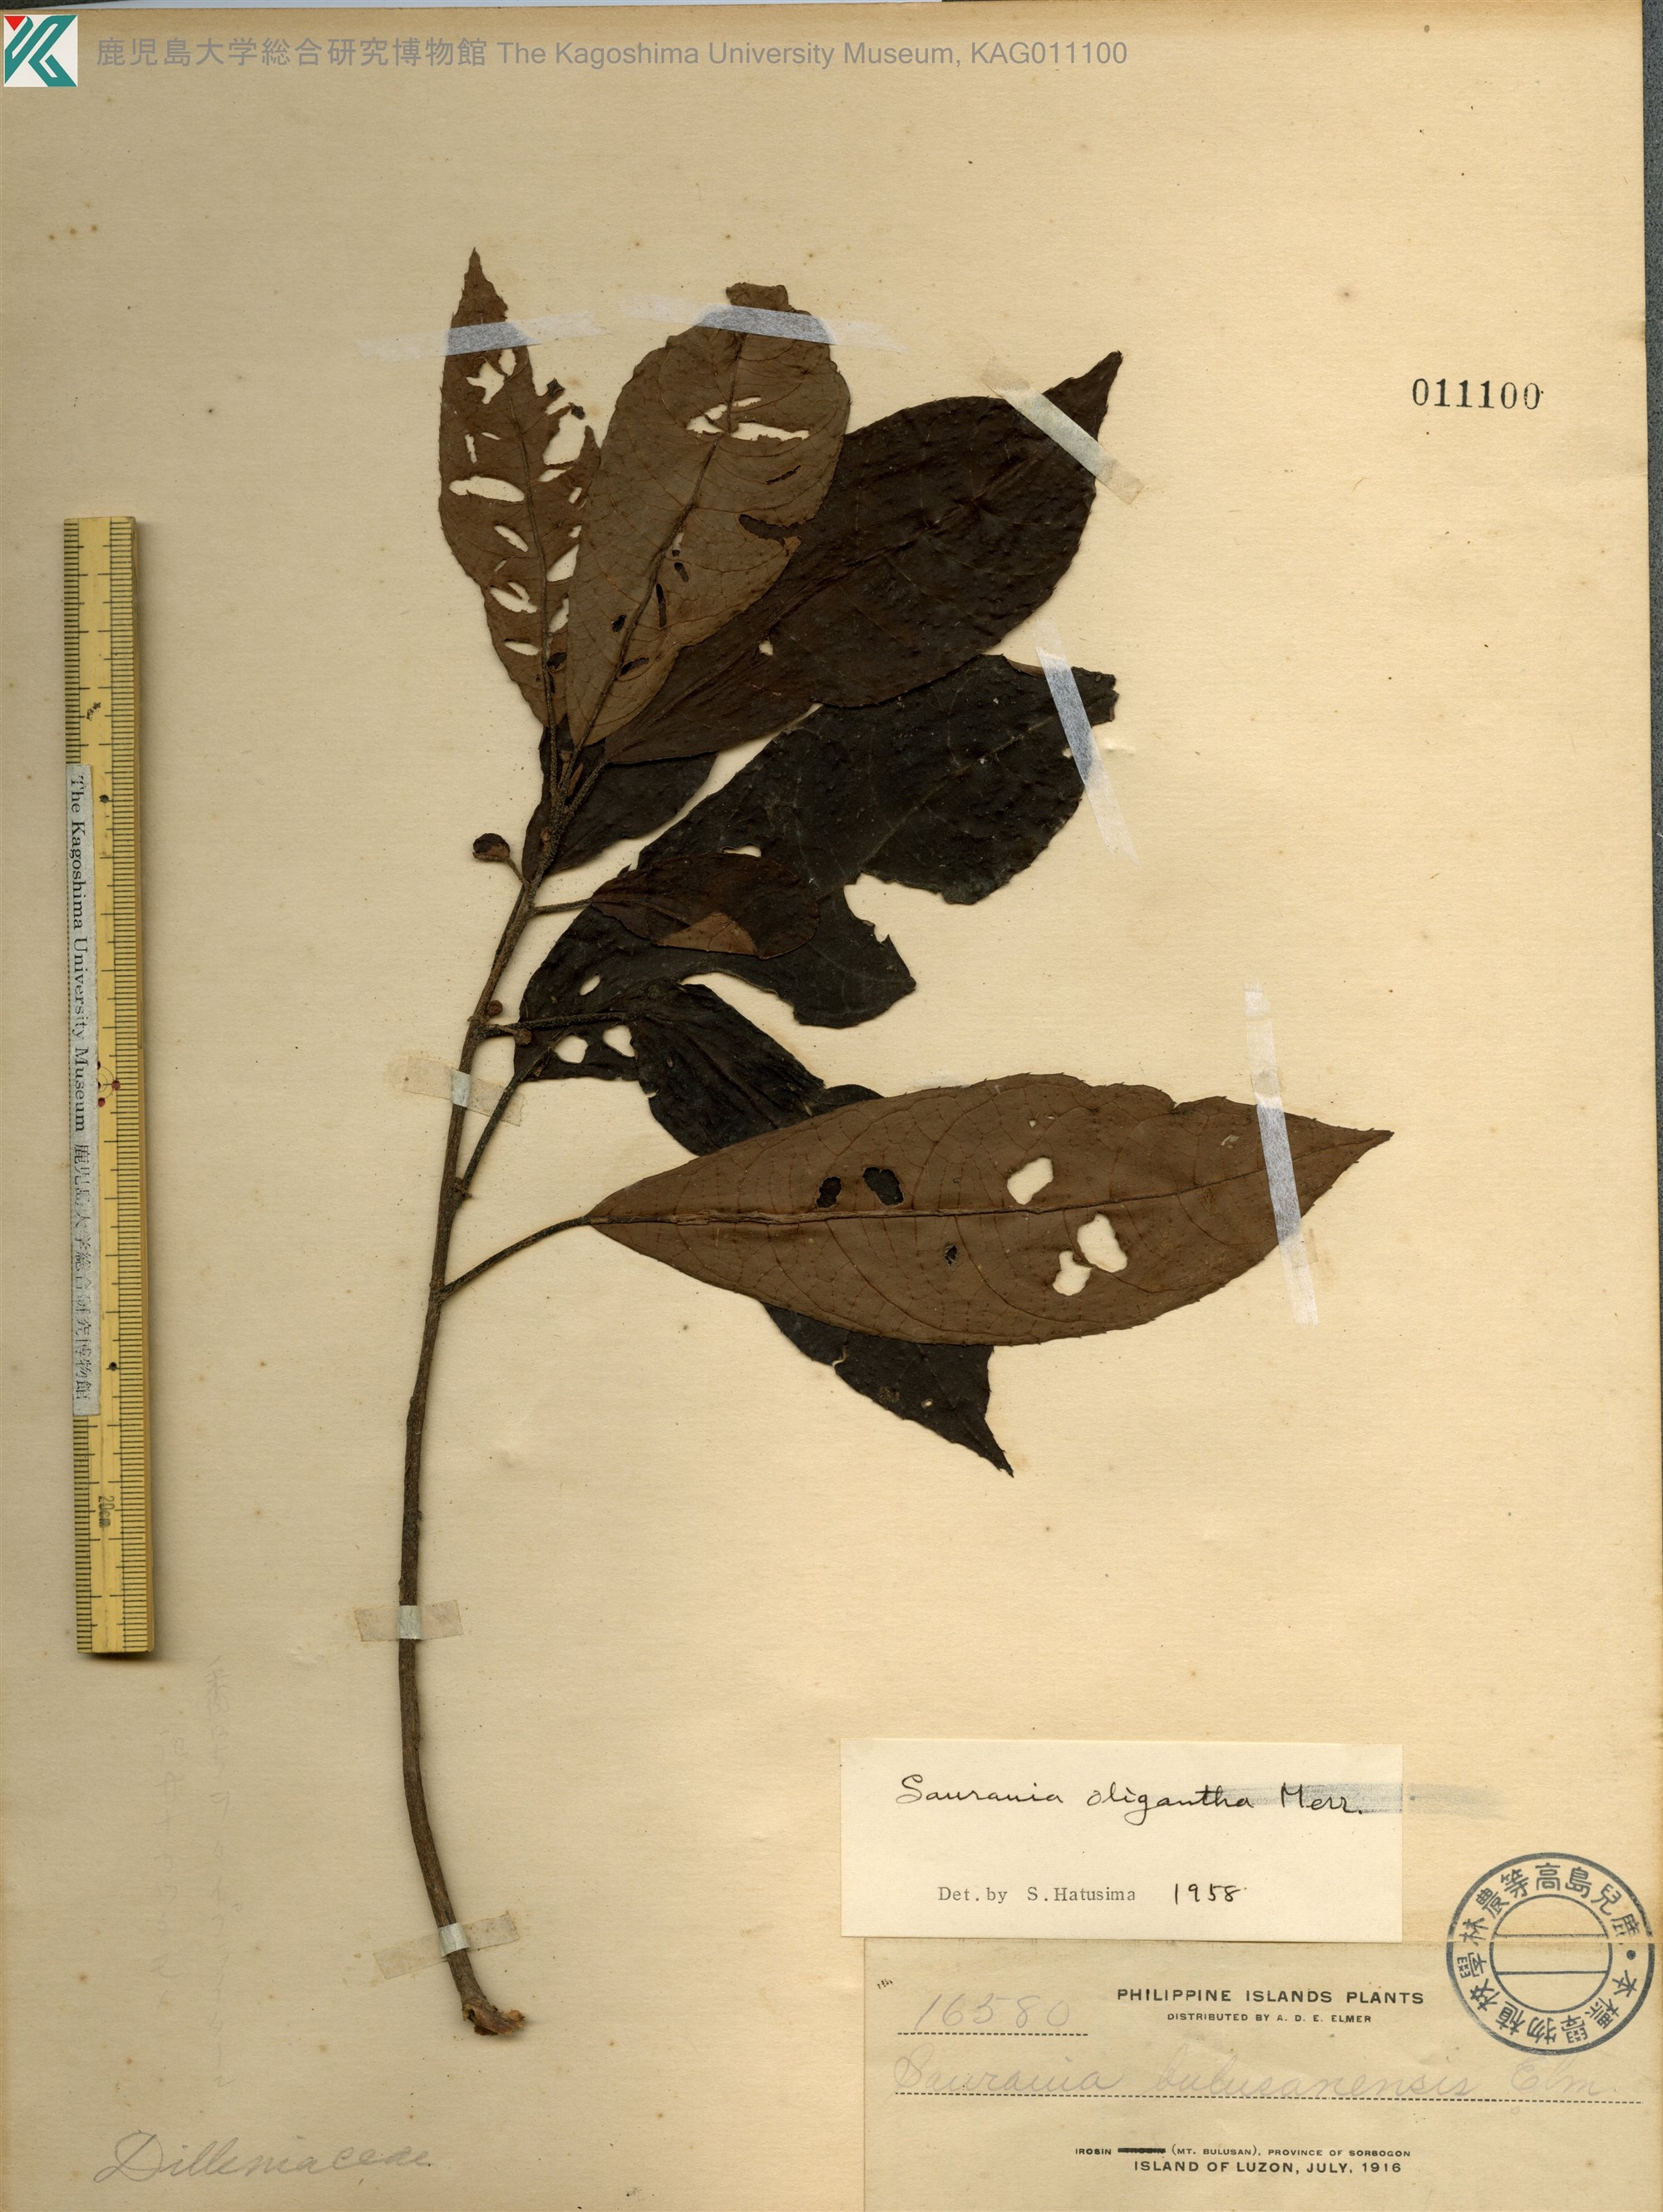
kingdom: Plantae
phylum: Tracheophyta
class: Magnoliopsida
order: Ericales
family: Actinidiaceae
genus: Saurauia
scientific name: Saurauia oligantha
